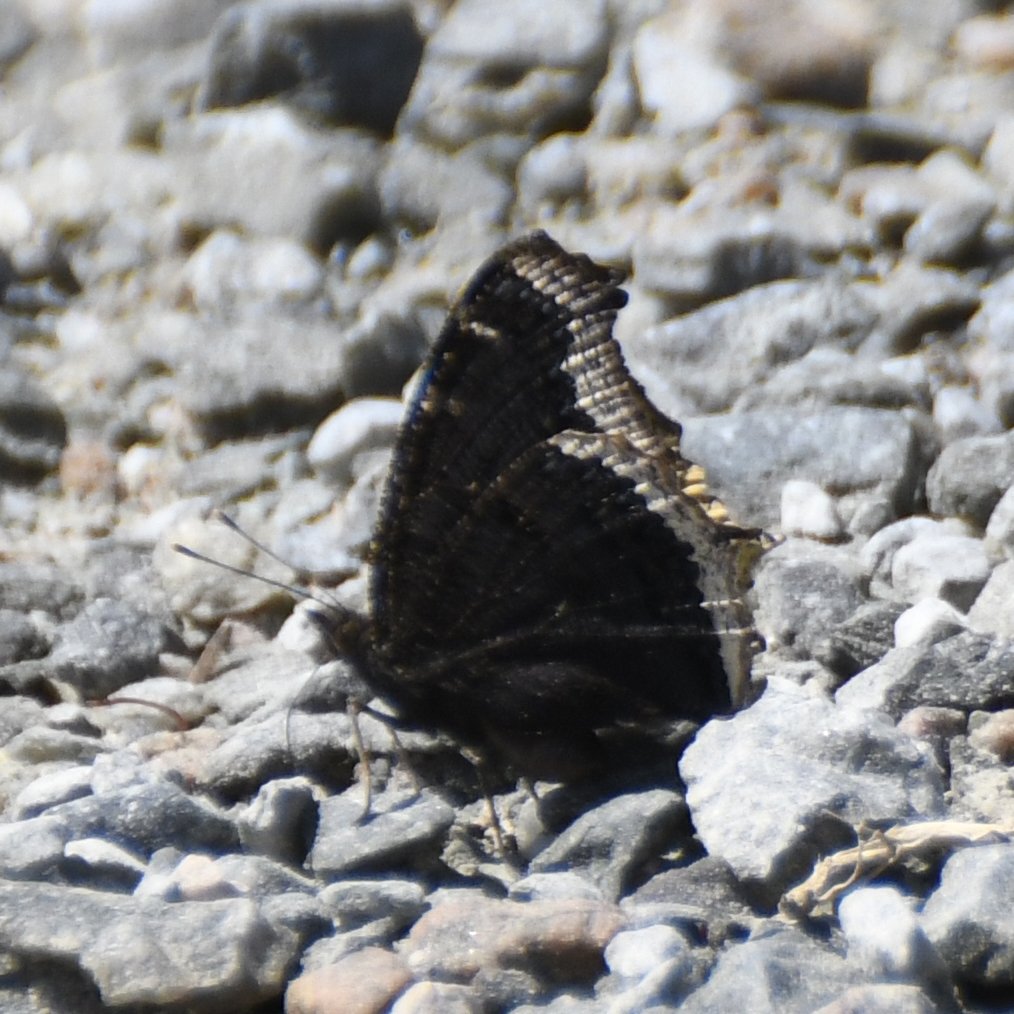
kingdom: Animalia
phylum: Arthropoda
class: Insecta
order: Lepidoptera
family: Nymphalidae
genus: Nymphalis
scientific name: Nymphalis antiopa
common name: Mourning Cloak
